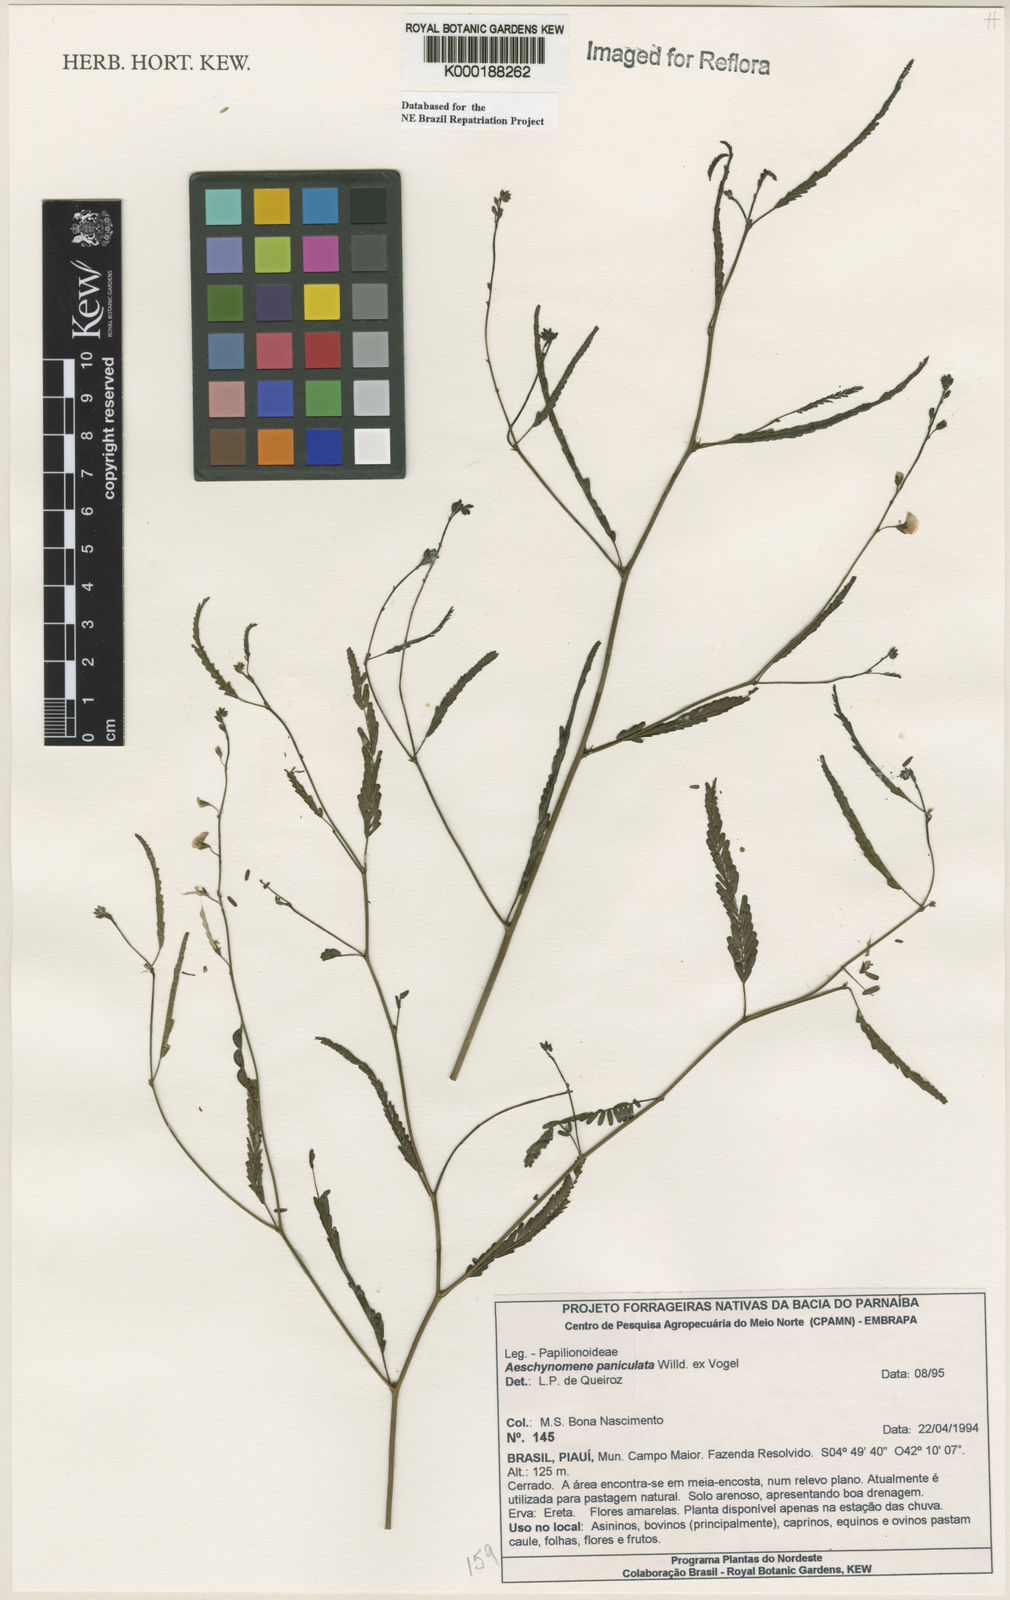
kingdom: Plantae
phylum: Tracheophyta
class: Magnoliopsida
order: Fabales
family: Fabaceae
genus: Ctenodon
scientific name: Ctenodon paniculatus
